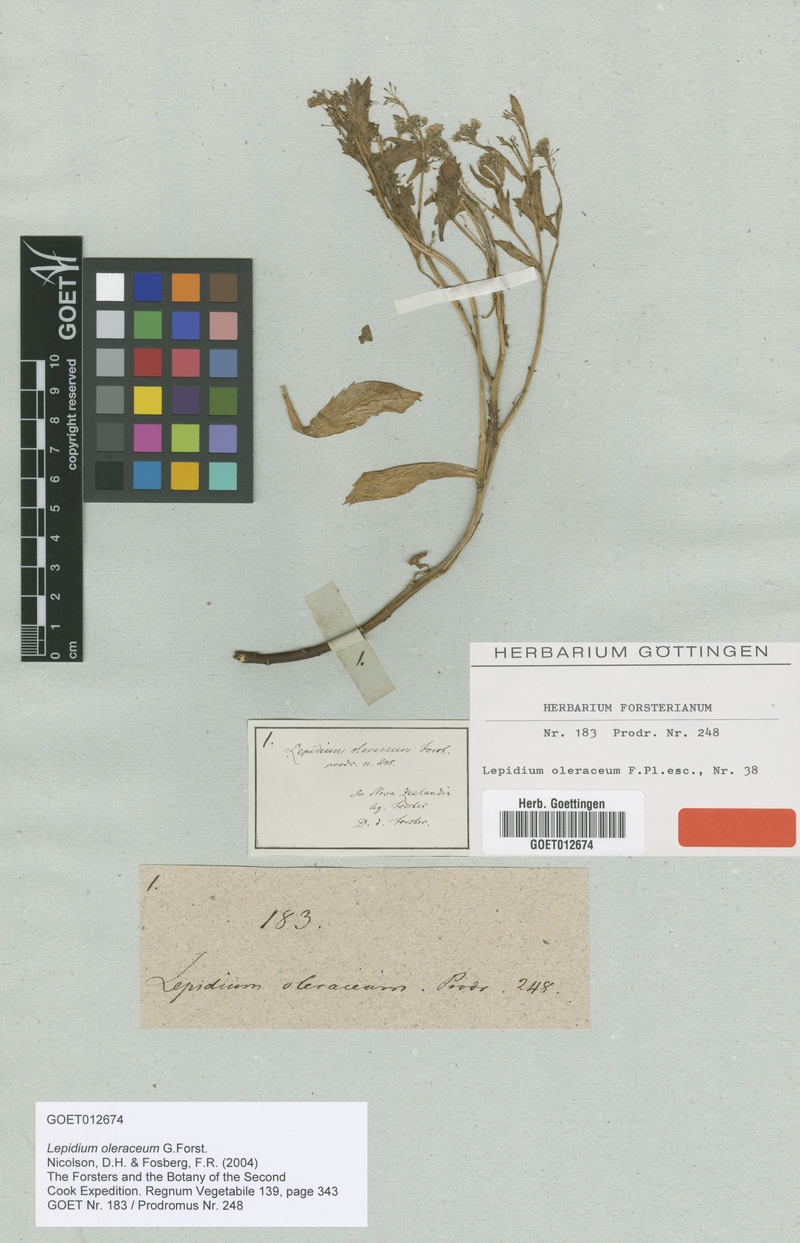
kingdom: Plantae
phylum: Tracheophyta
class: Magnoliopsida
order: Brassicales
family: Brassicaceae
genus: Lepidium
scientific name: Lepidium oleraceum
